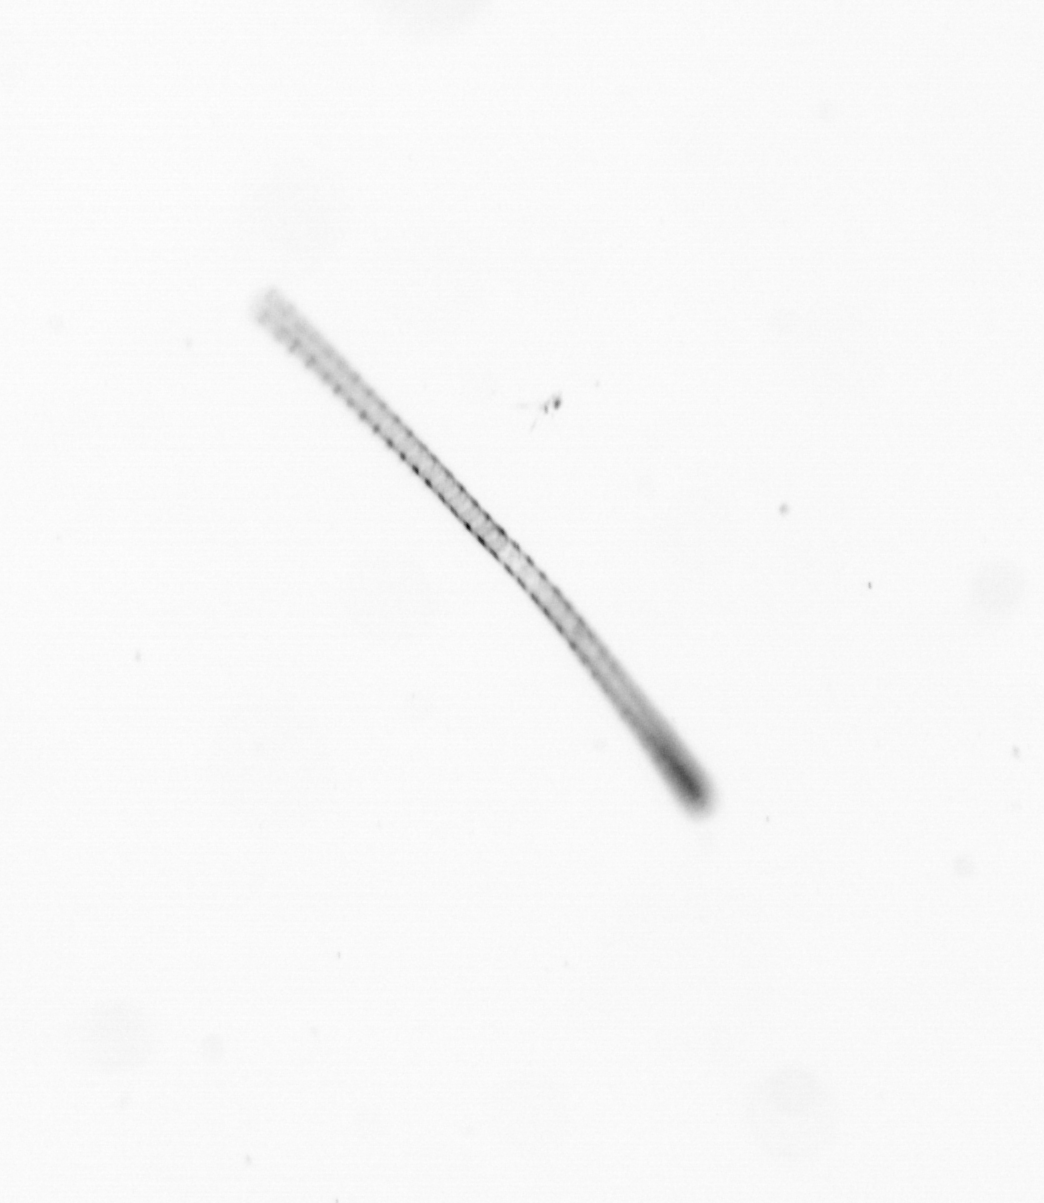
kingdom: Chromista
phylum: Ochrophyta
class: Bacillariophyceae
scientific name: Bacillariophyceae
